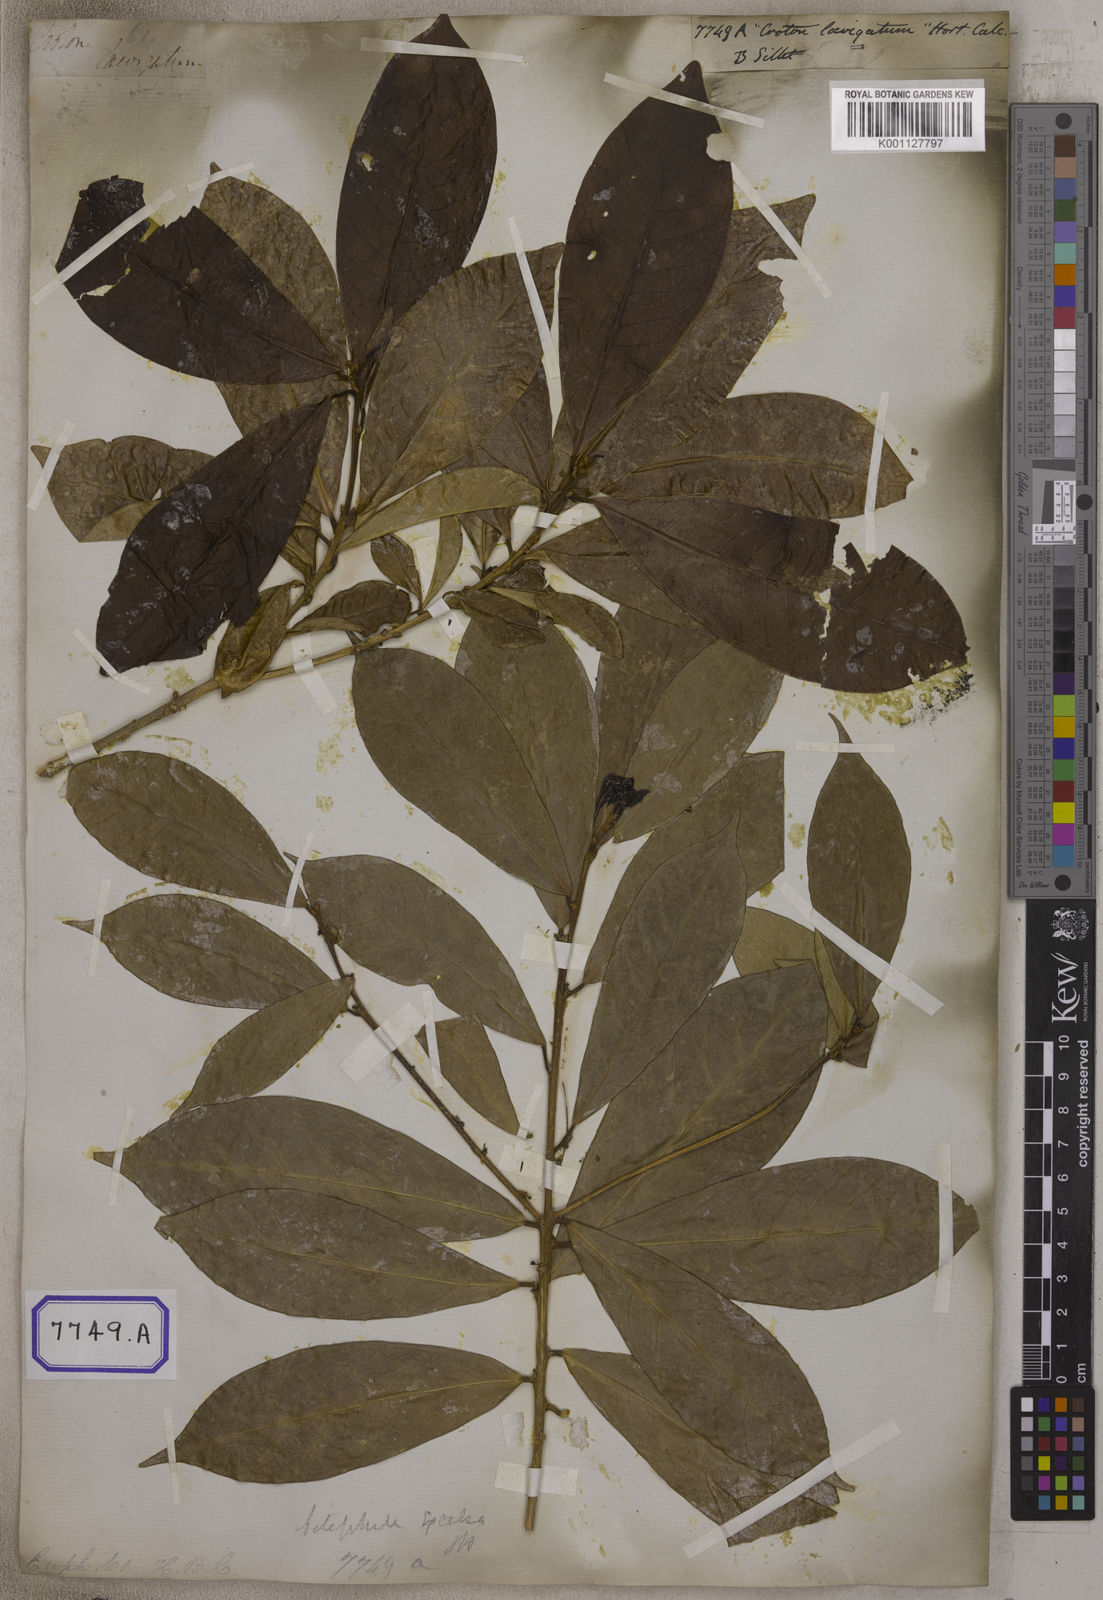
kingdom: Plantae
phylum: Tracheophyta
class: Magnoliopsida
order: Malpighiales
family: Euphorbiaceae
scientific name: Euphorbiaceae
